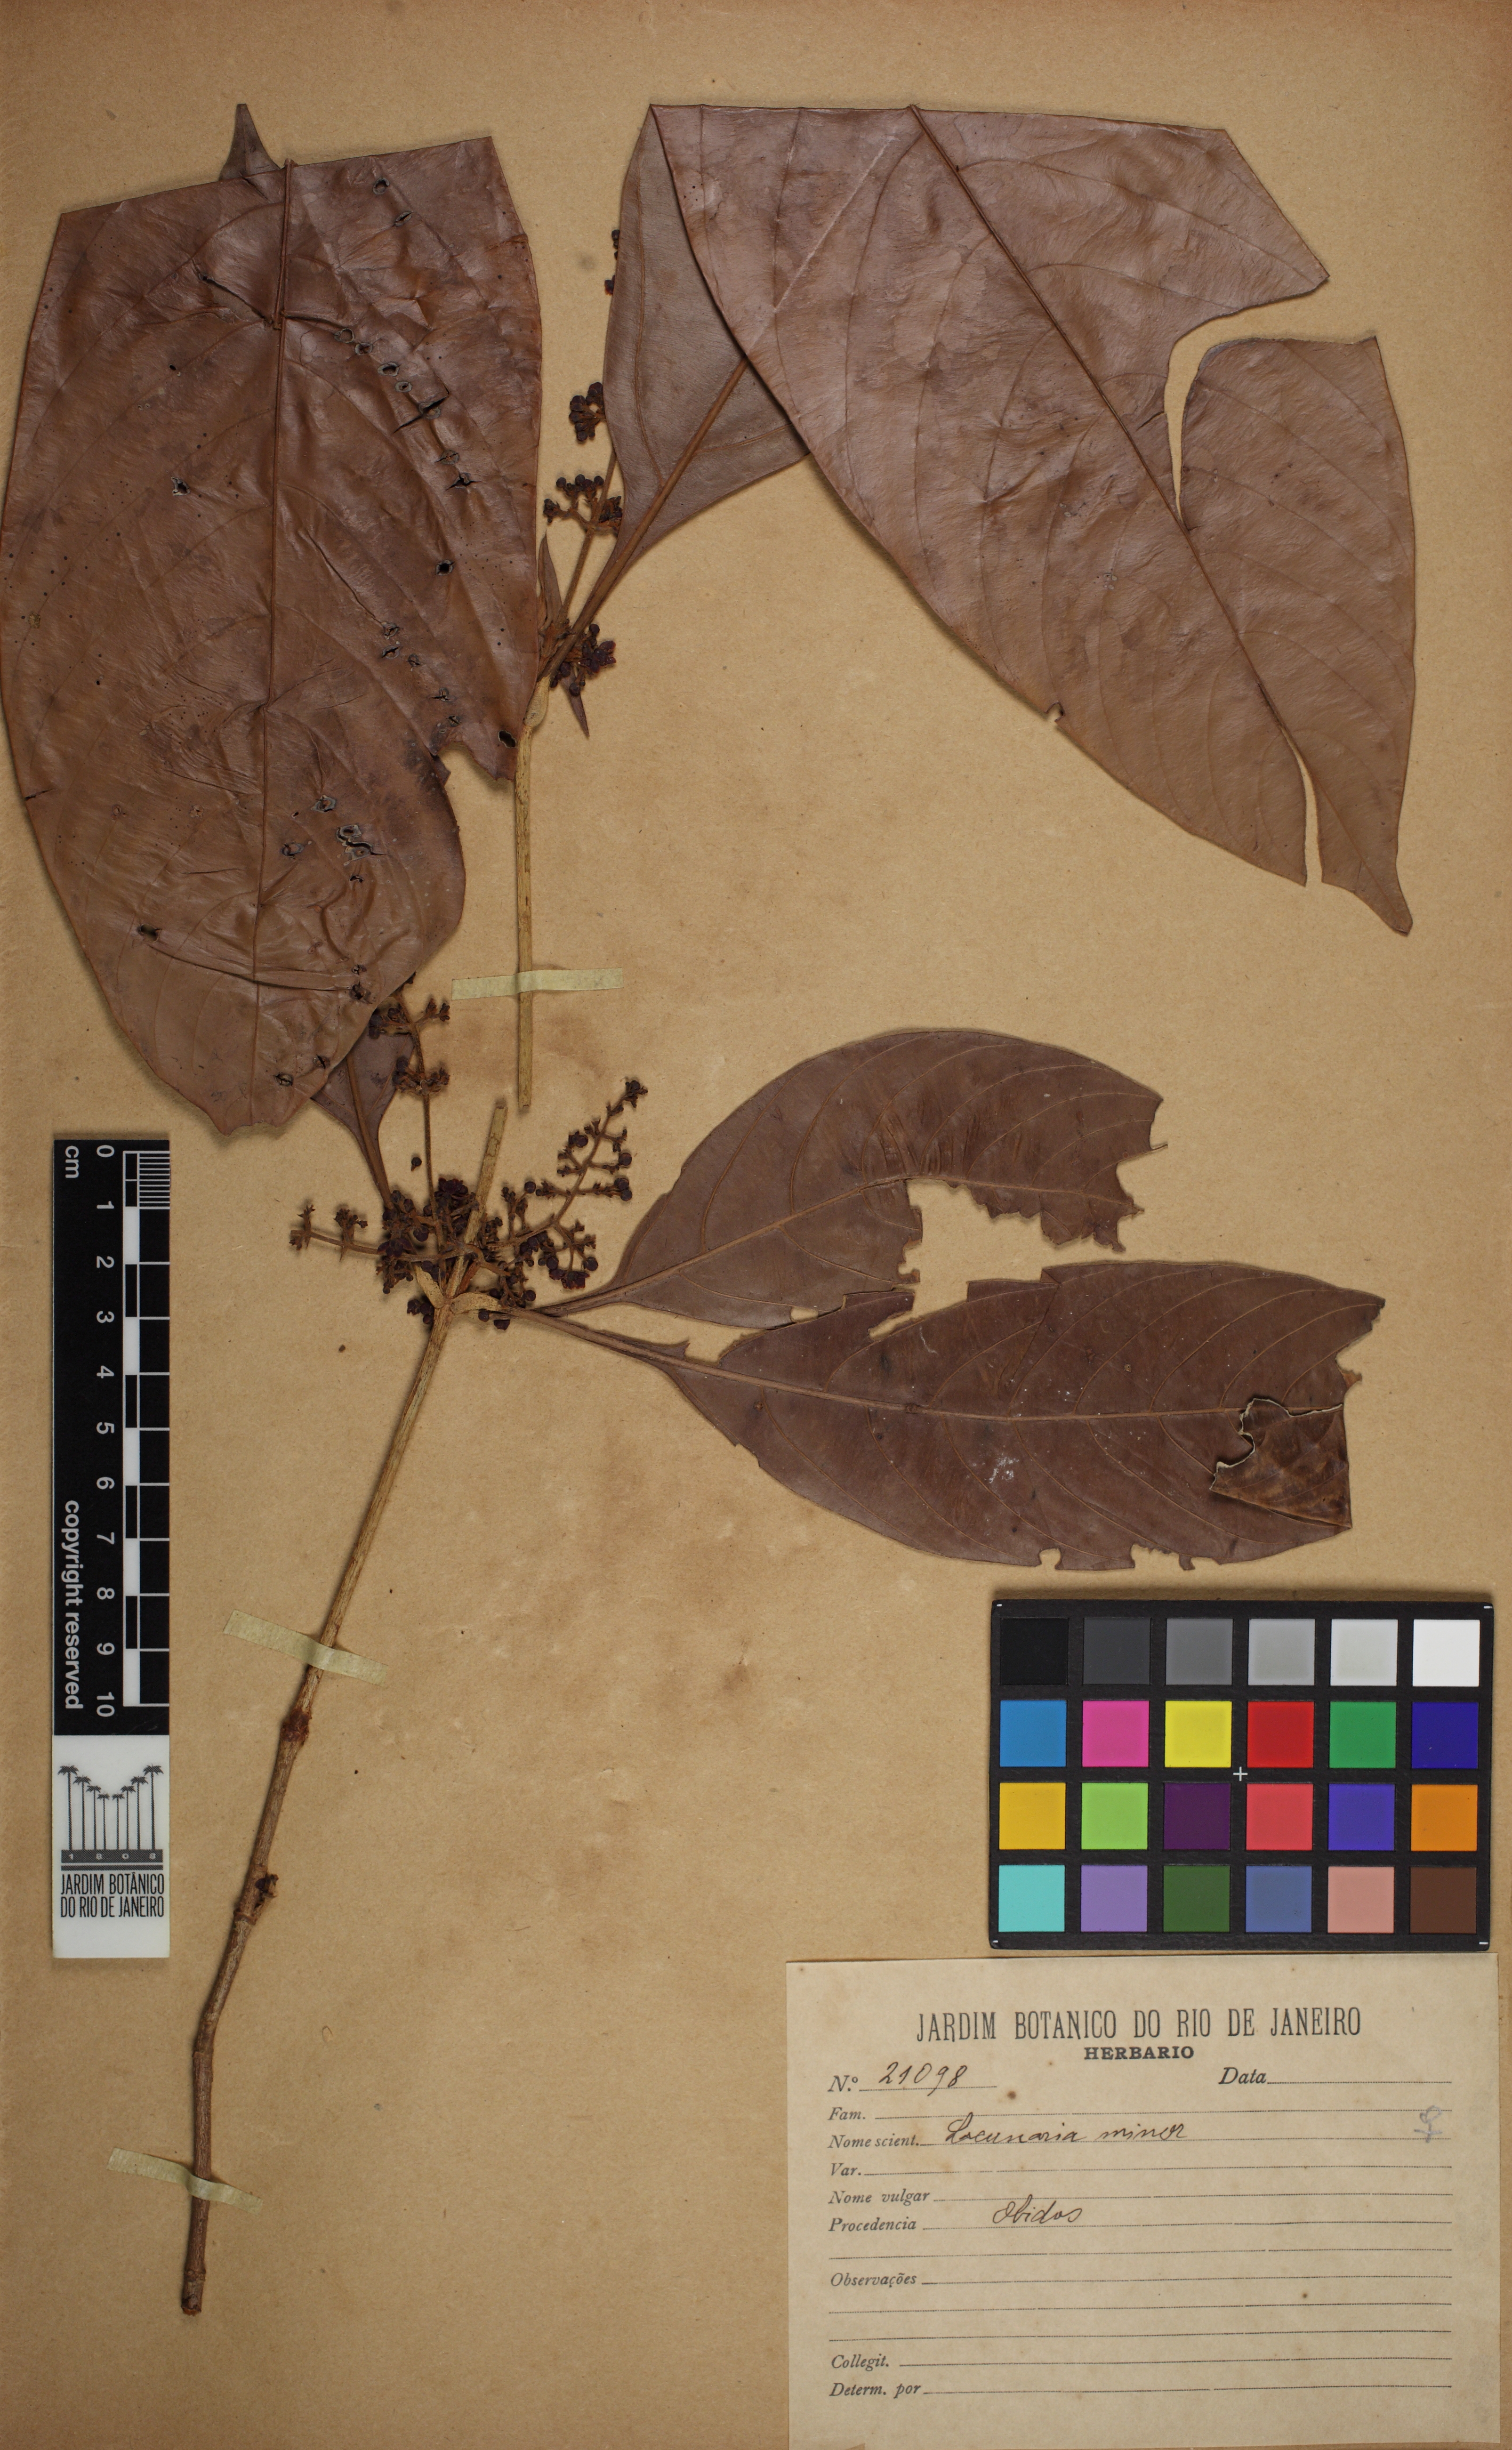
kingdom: Plantae
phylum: Tracheophyta
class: Magnoliopsida
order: Malpighiales
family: Quiinaceae
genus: Lacunaria
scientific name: Lacunaria macrostachya
